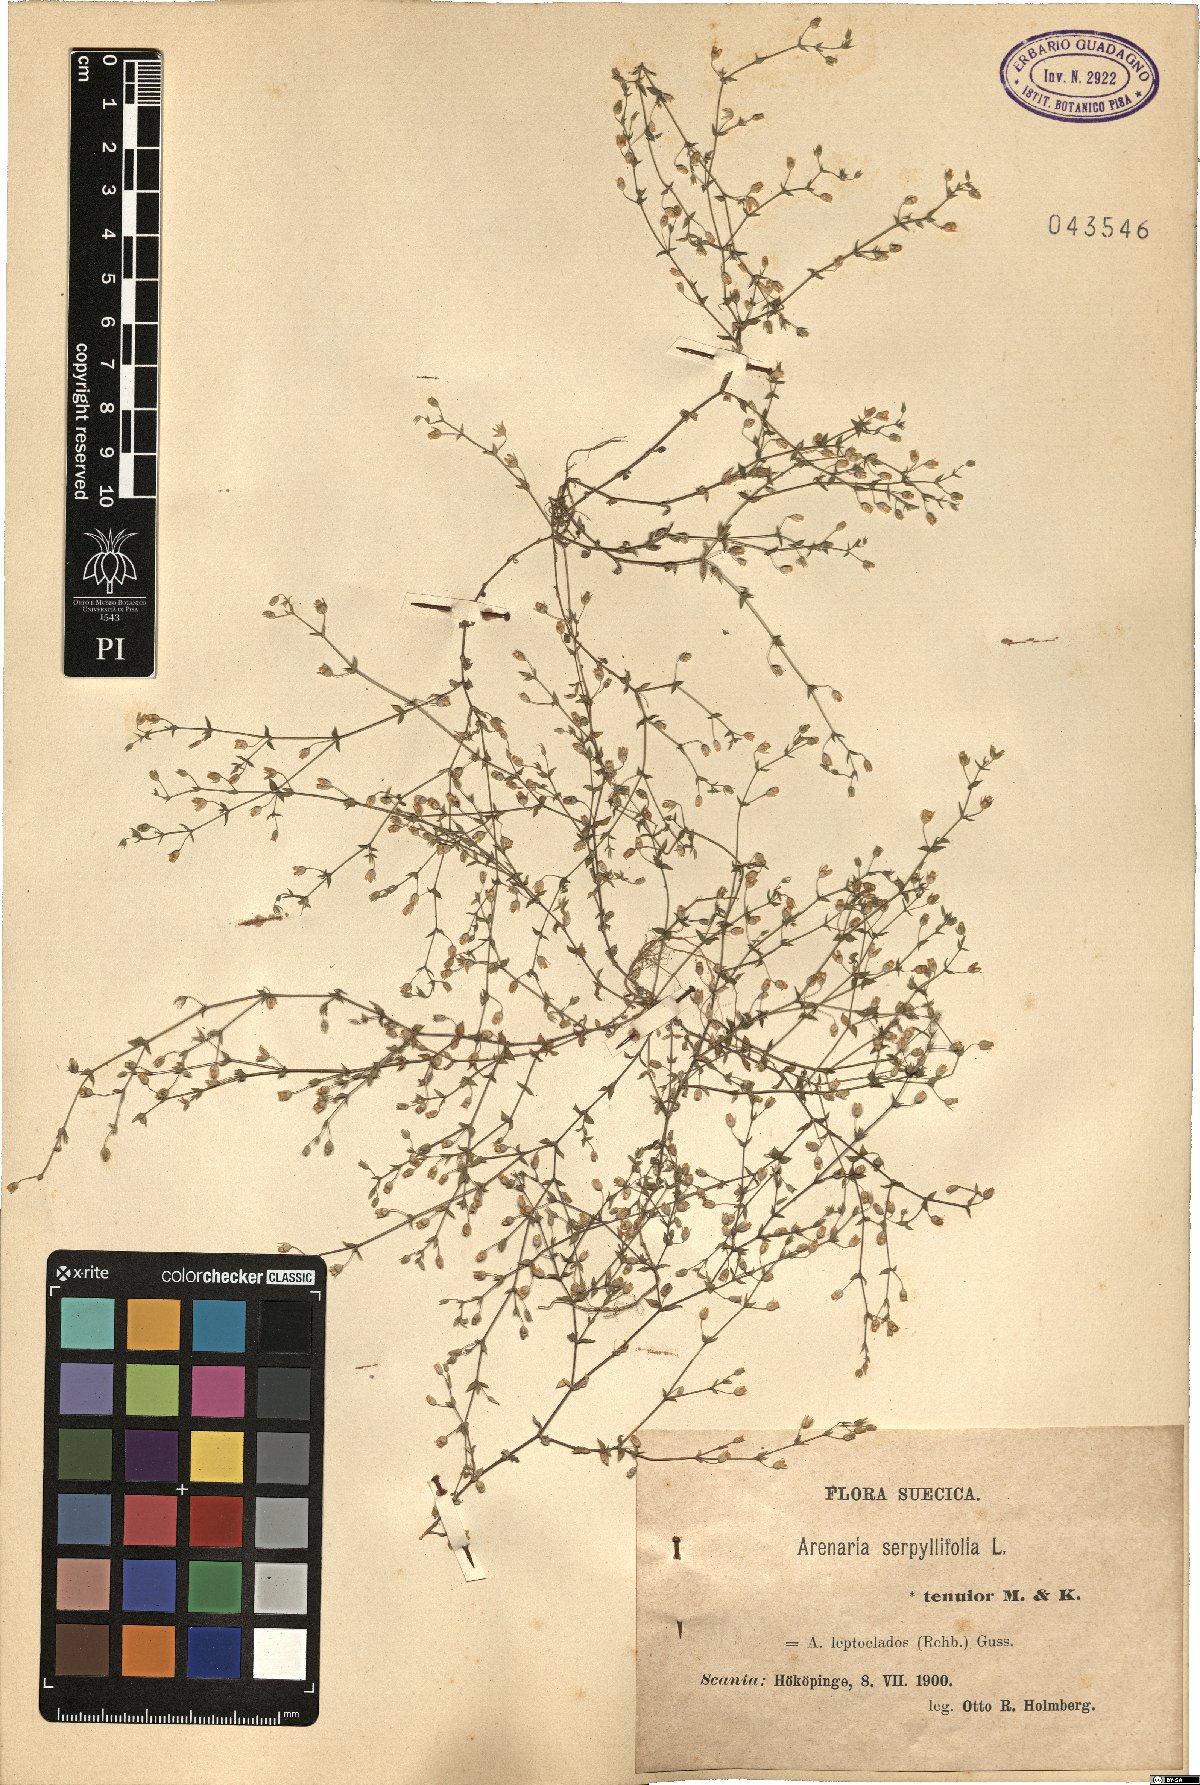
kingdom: Plantae
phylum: Tracheophyta
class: Magnoliopsida
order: Caryophyllales
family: Caryophyllaceae
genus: Arenaria
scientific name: Arenaria leptoclados
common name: Thyme-leaved sandwort
